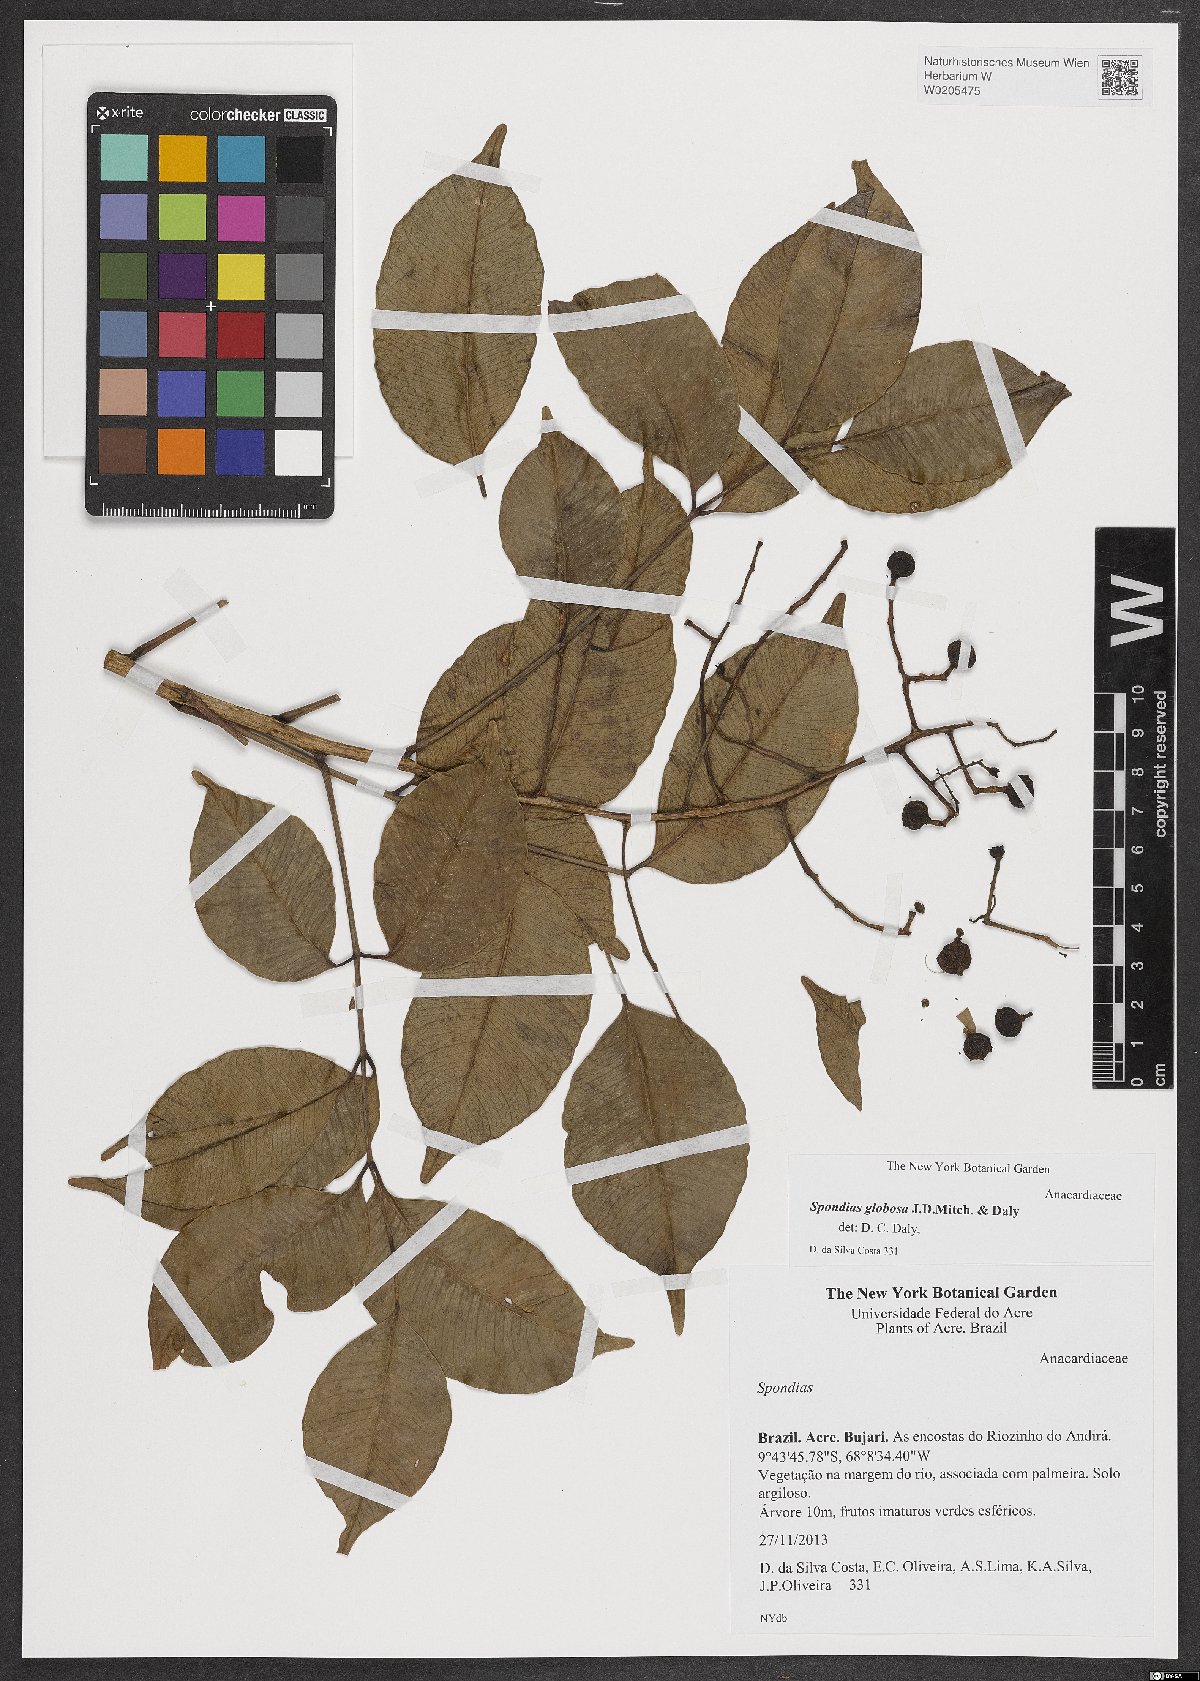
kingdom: Plantae
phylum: Tracheophyta
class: Magnoliopsida
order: Sapindales
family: Anacardiaceae
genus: Spondias
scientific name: Spondias globosa
